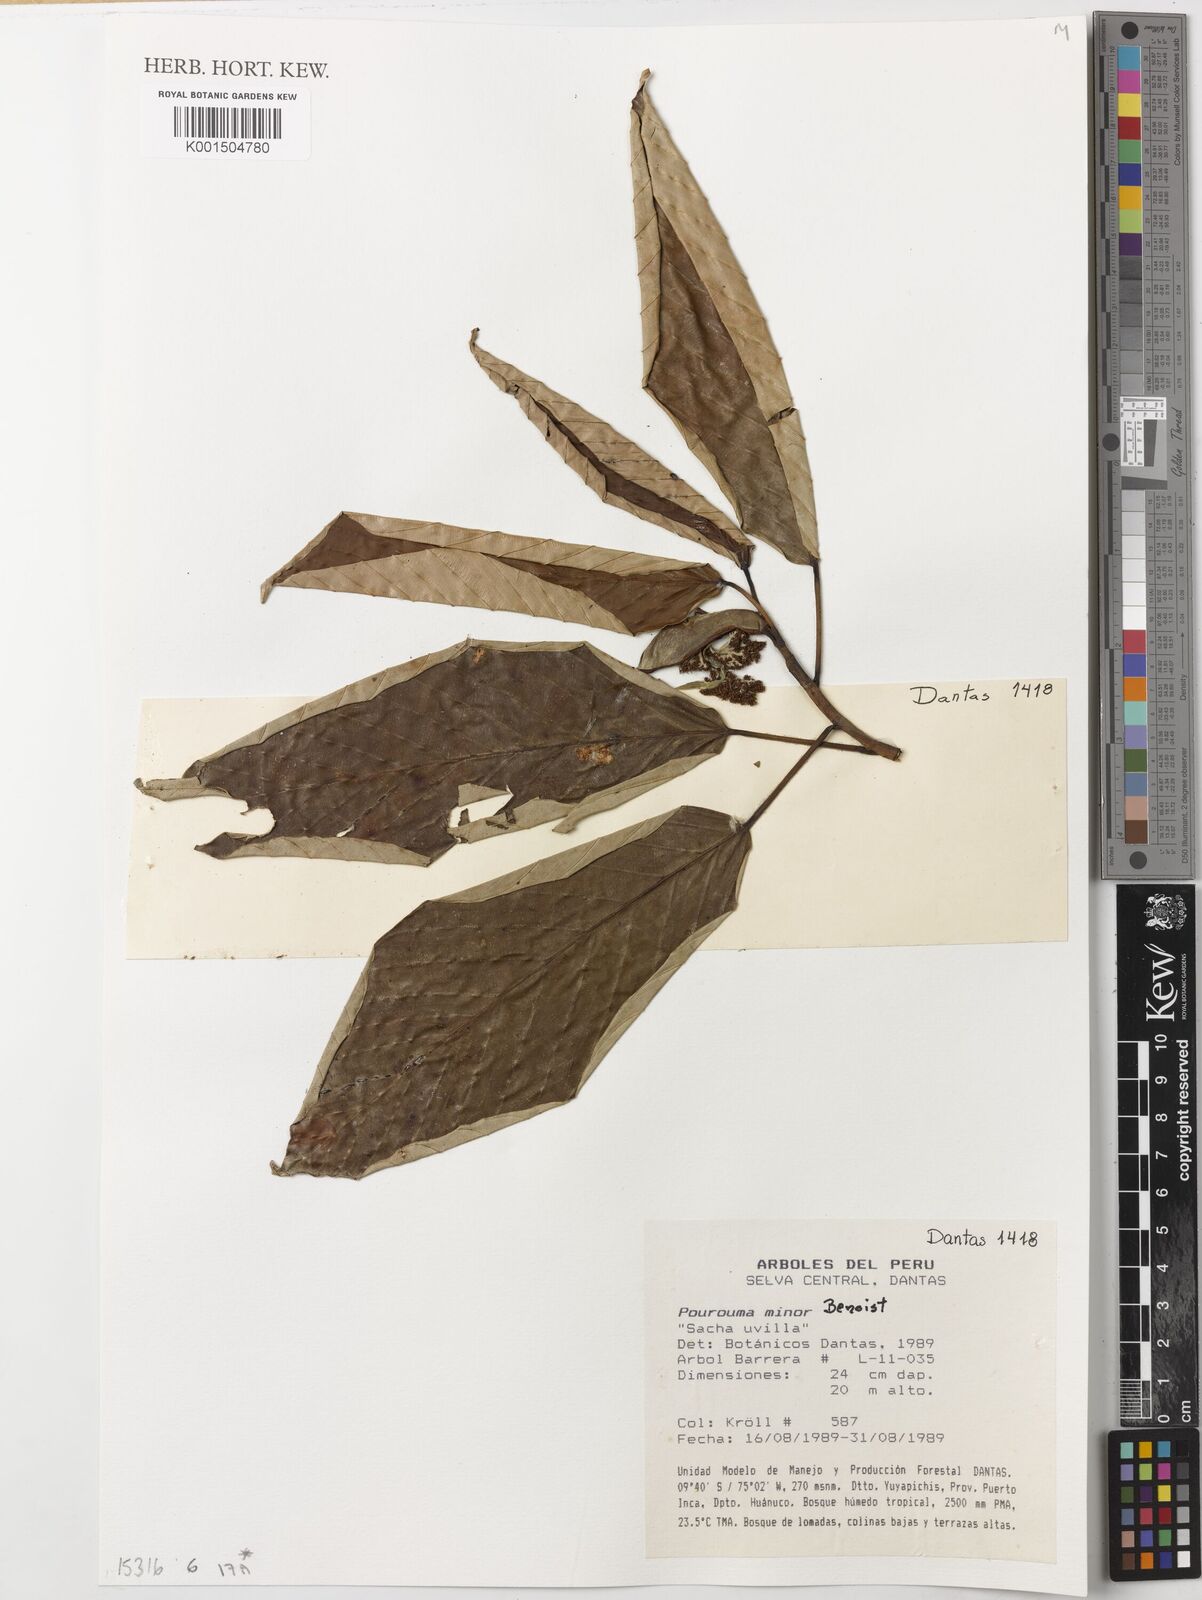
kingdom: Plantae
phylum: Tracheophyta
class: Magnoliopsida
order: Rosales
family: Urticaceae
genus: Pourouma
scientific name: Pourouma minor
